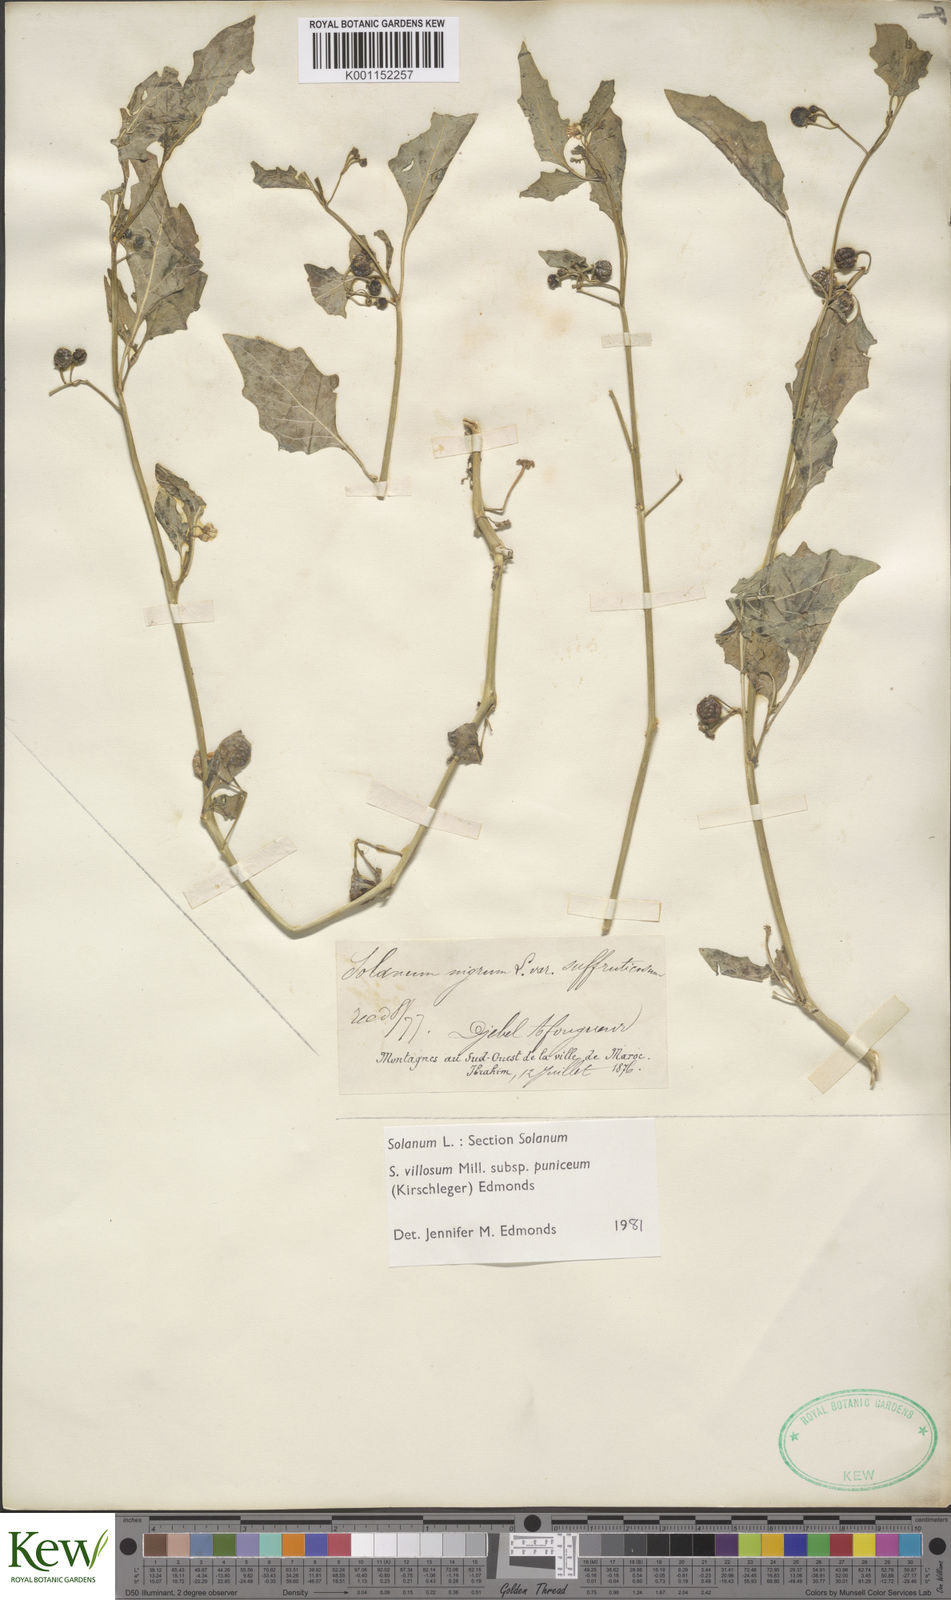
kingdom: Plantae
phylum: Tracheophyta
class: Magnoliopsida
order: Solanales
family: Solanaceae
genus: Solanum
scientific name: Solanum villosum
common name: Red nightshade
